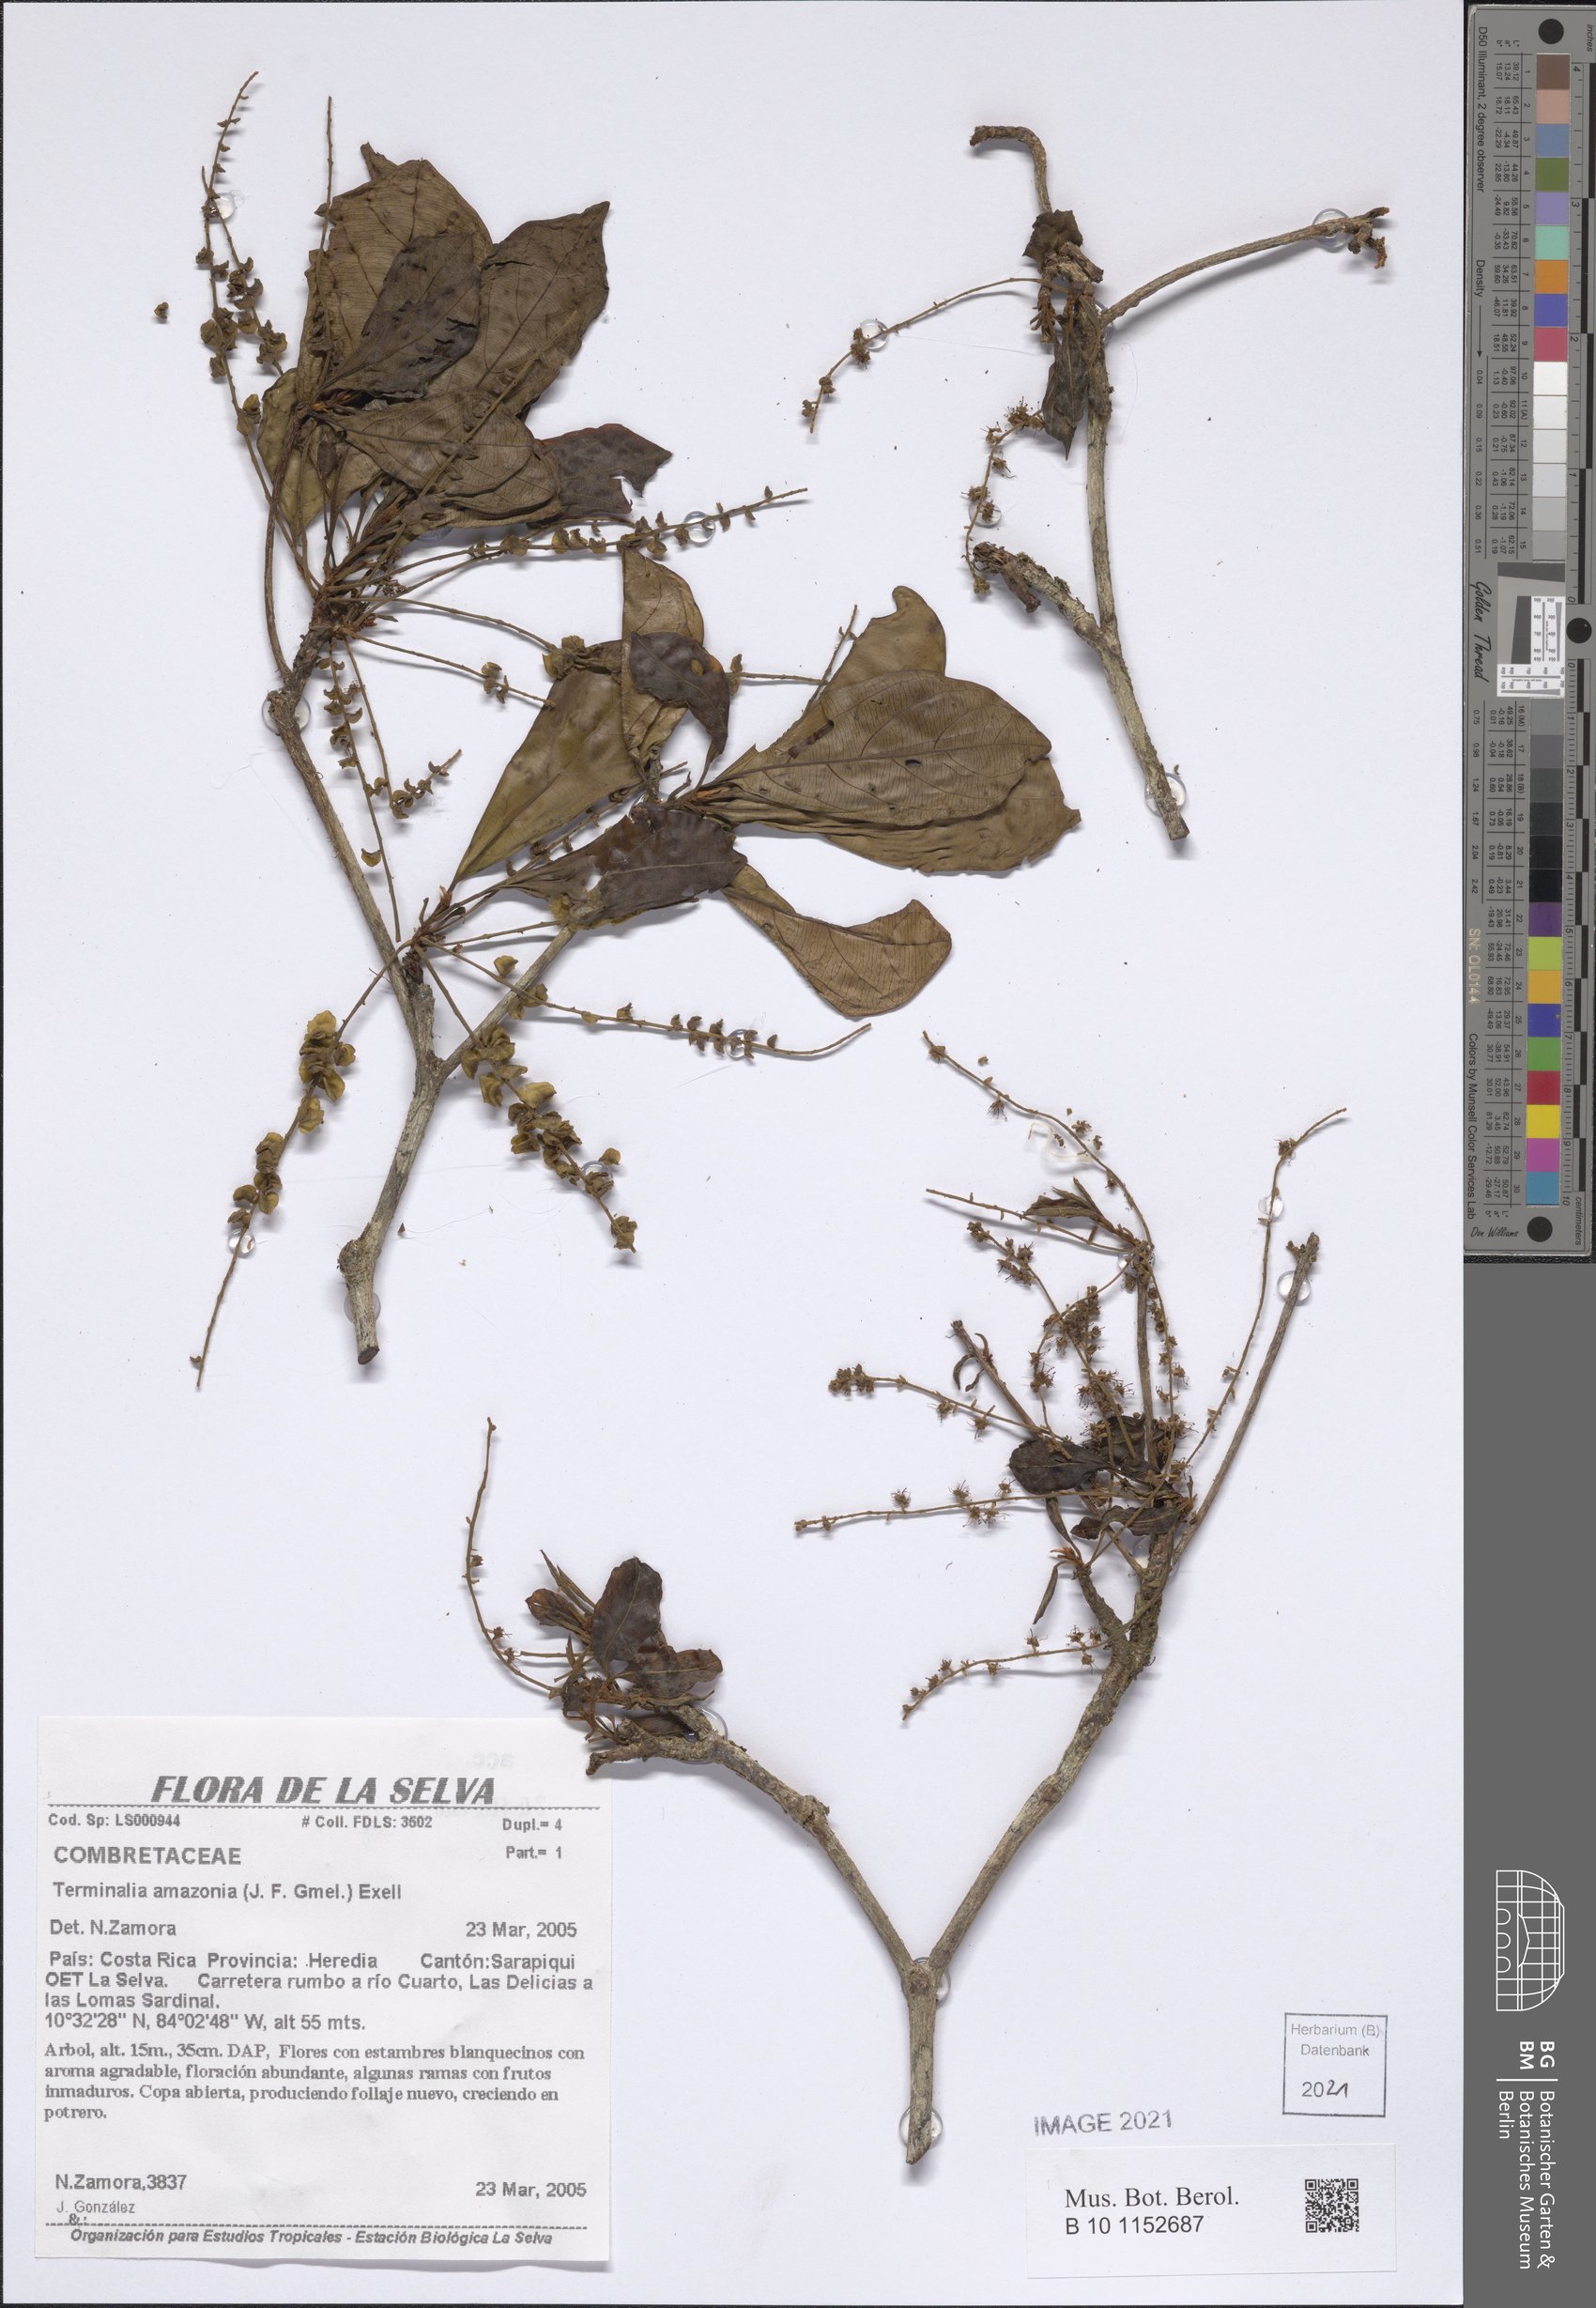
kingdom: Plantae
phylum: Tracheophyta
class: Magnoliopsida
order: Myrtales
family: Combretaceae
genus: Terminalia
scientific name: Terminalia amazonica
